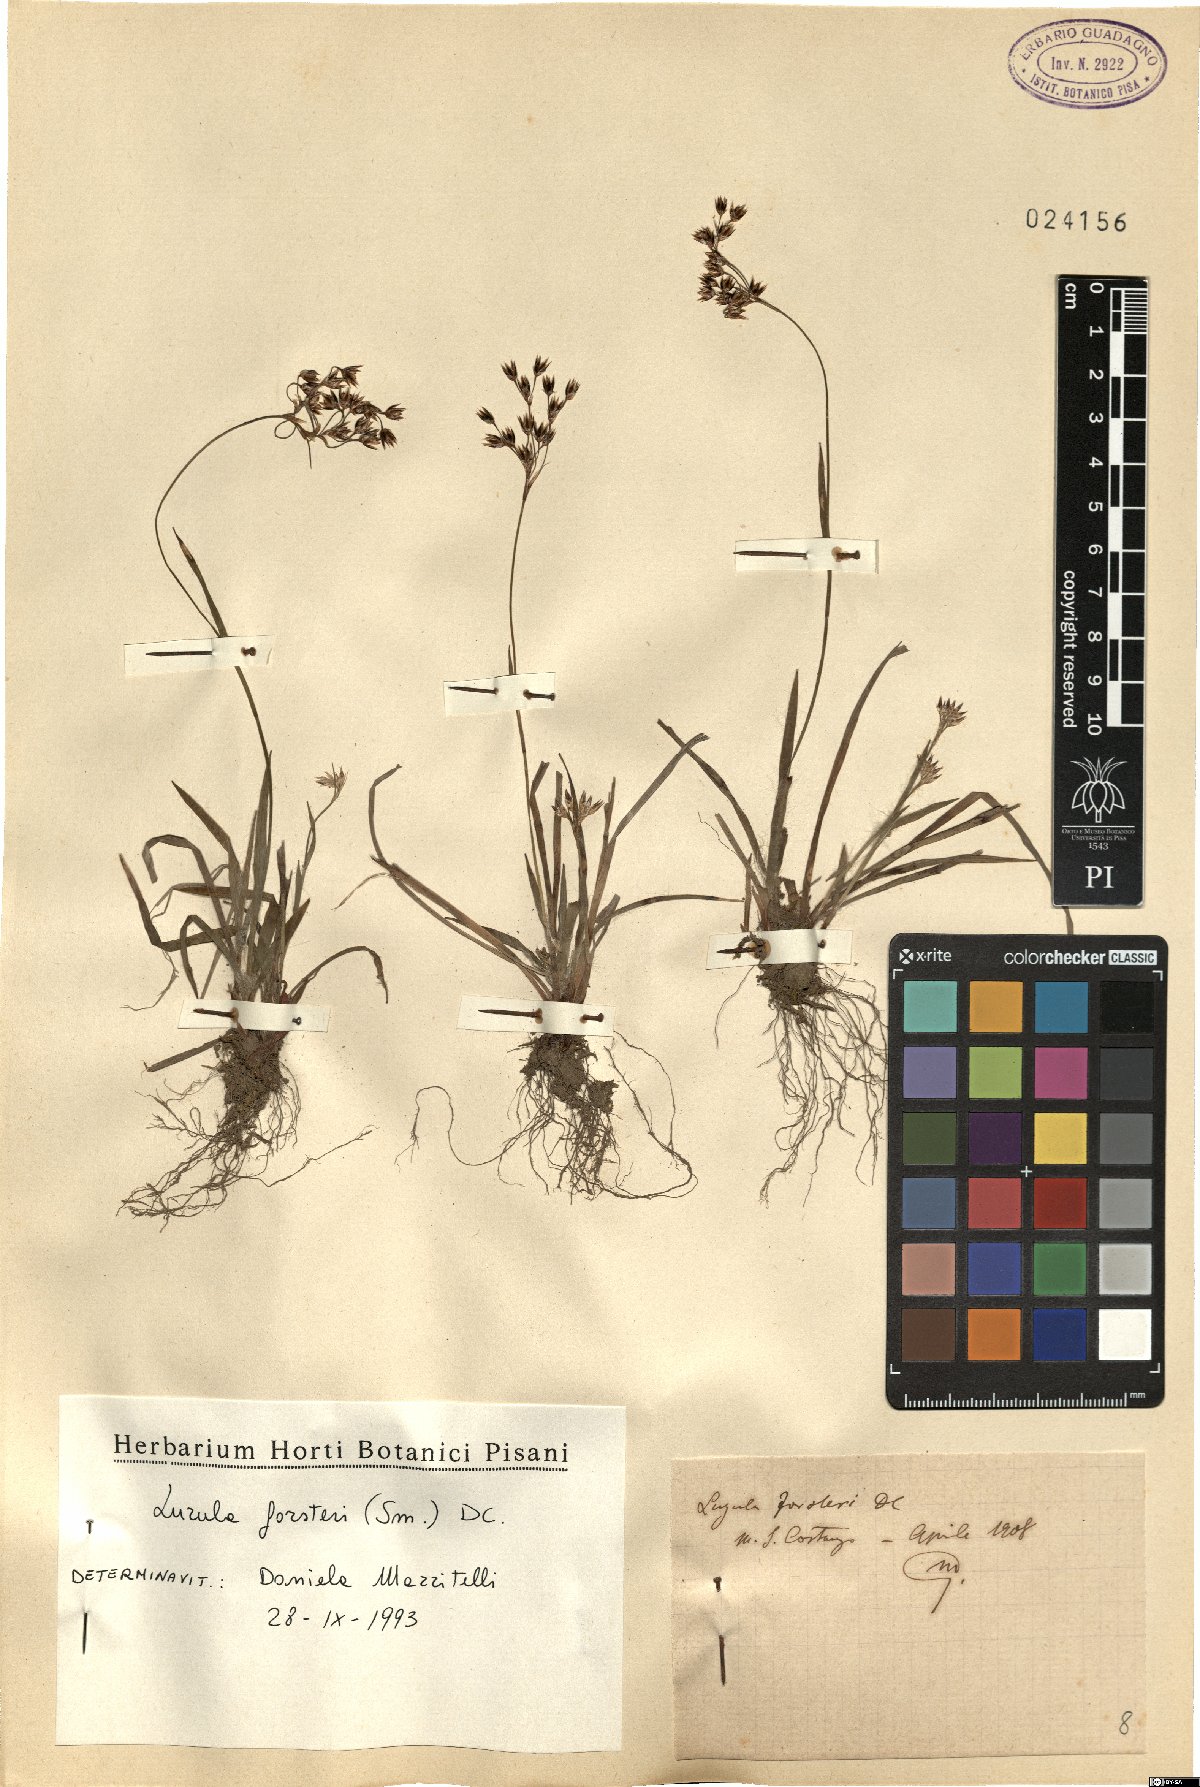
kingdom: Plantae
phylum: Tracheophyta
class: Liliopsida
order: Poales
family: Juncaceae
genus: Luzula
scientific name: Luzula forsteri
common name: Southern wood-rush
